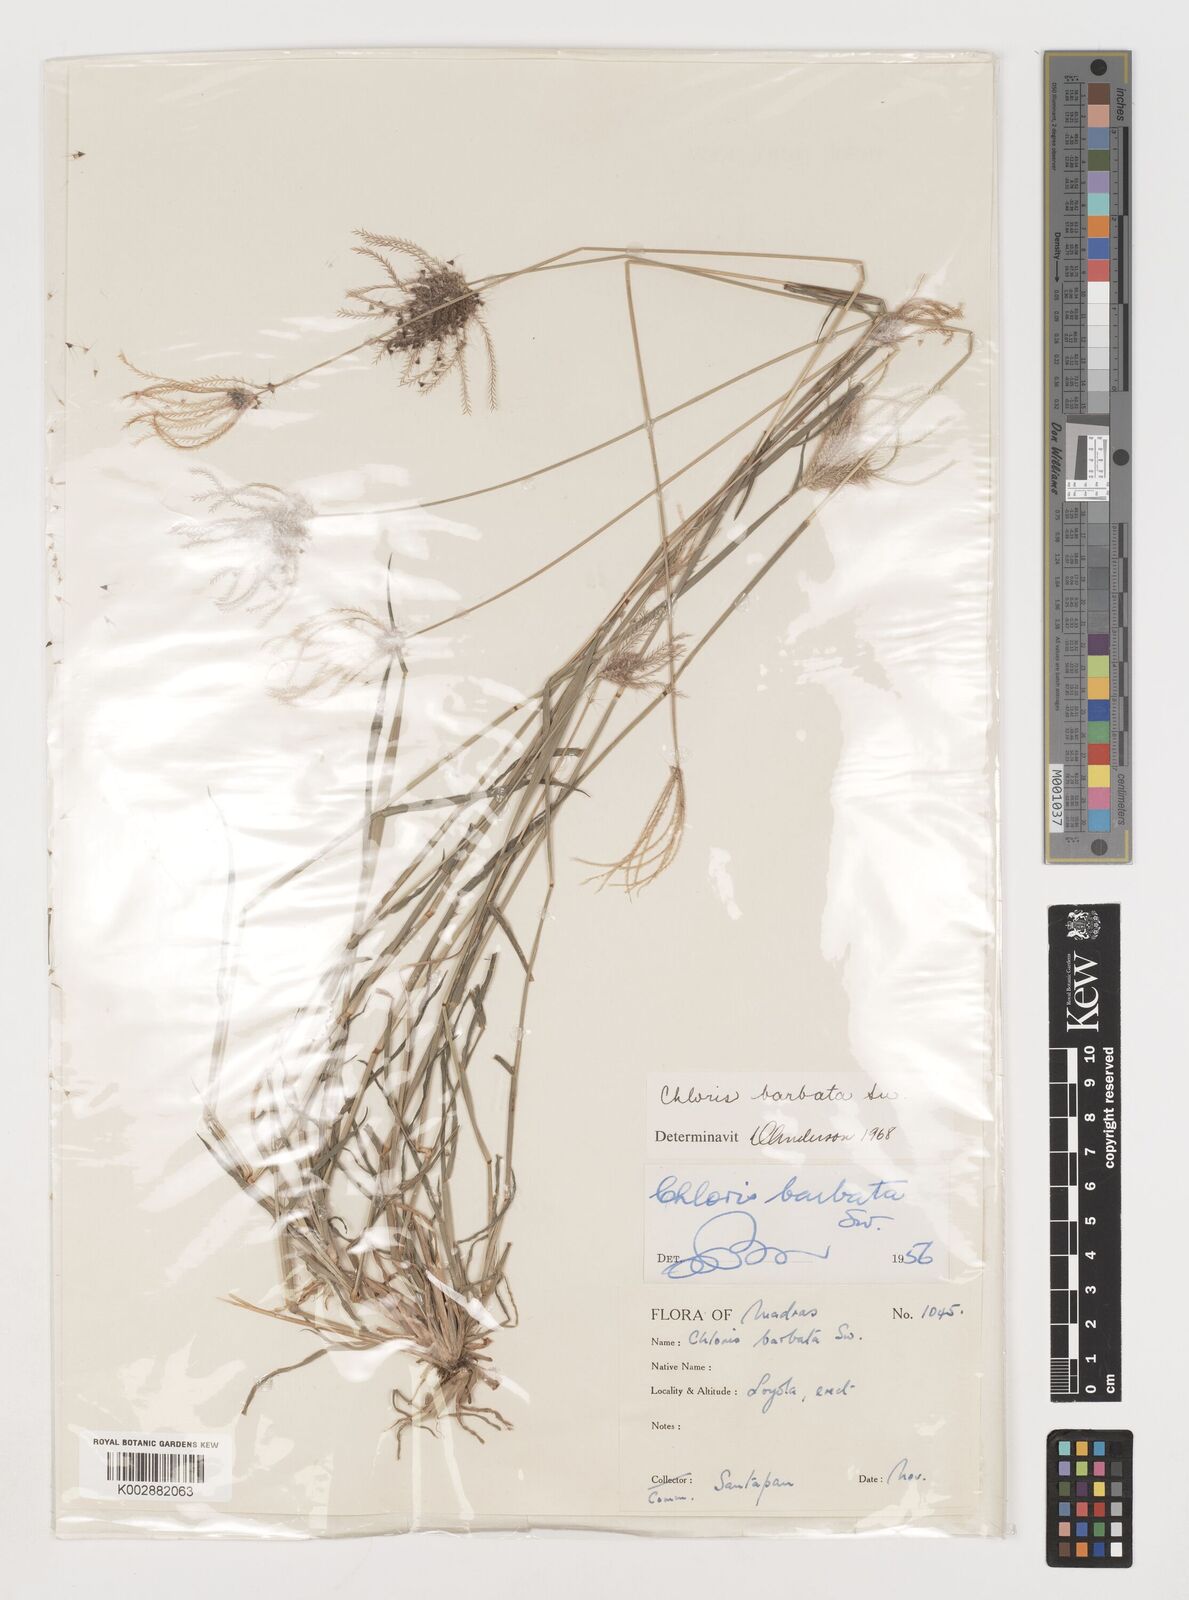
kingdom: Plantae
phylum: Tracheophyta
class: Liliopsida
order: Poales
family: Poaceae
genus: Chloris
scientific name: Chloris barbata
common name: Swollen fingergrass
